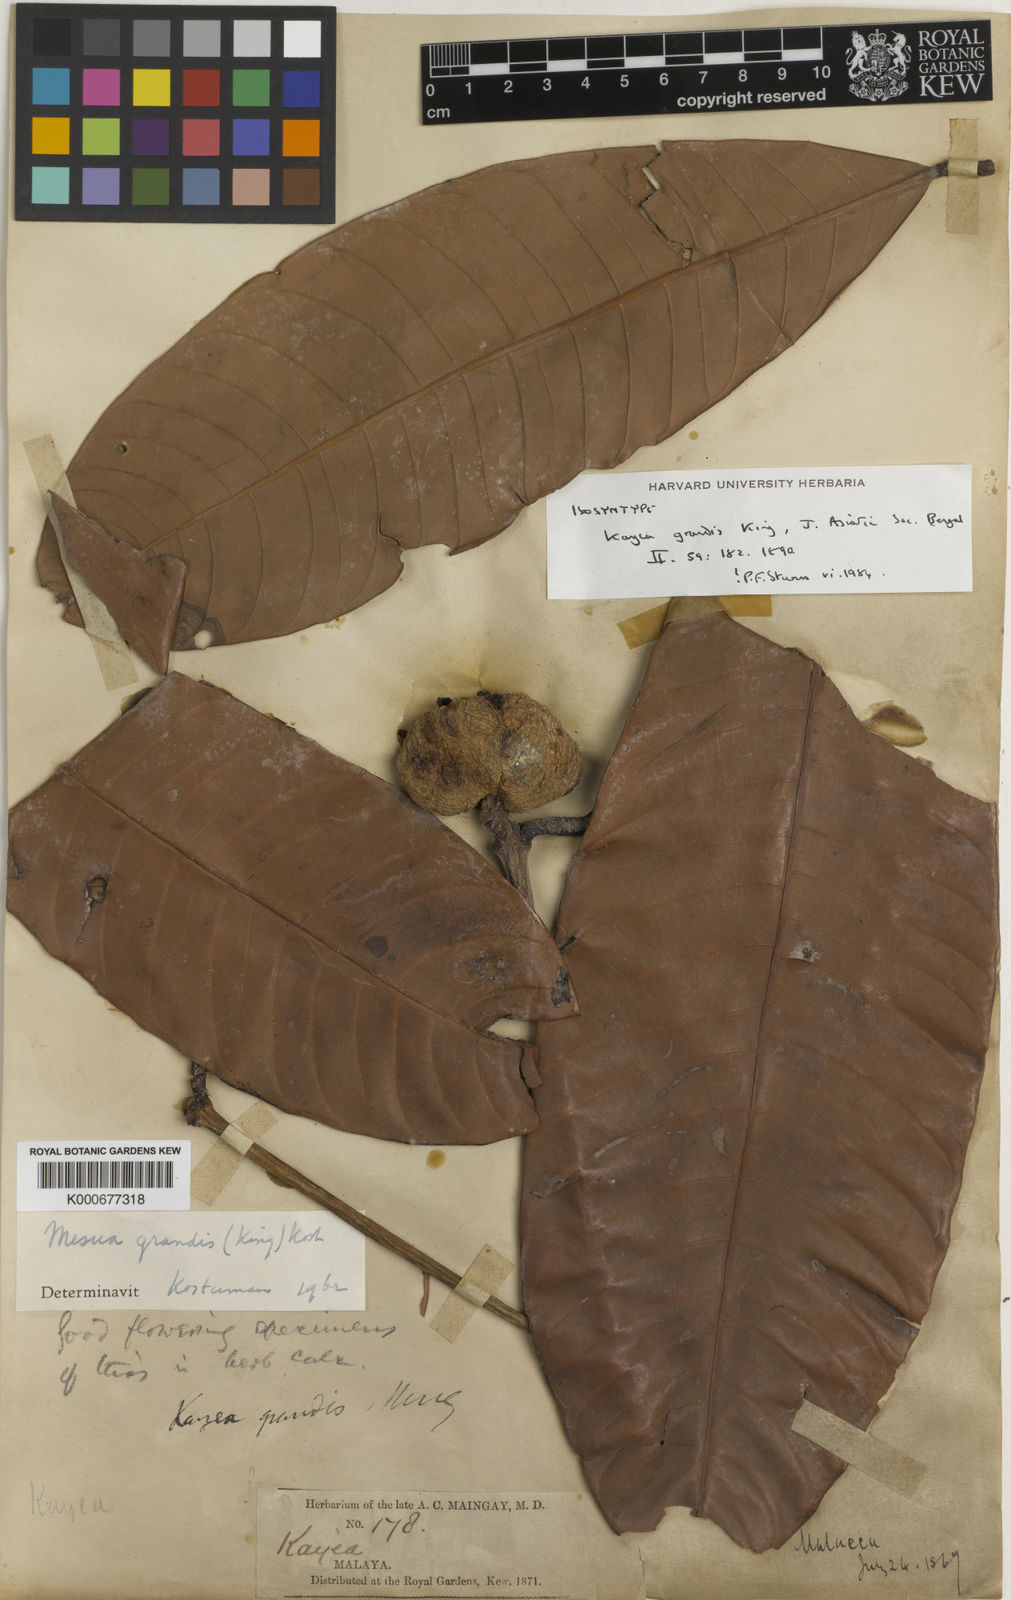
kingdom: Plantae
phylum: Tracheophyta
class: Magnoliopsida
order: Malpighiales
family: Calophyllaceae
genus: Kayea
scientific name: Kayea grandis
